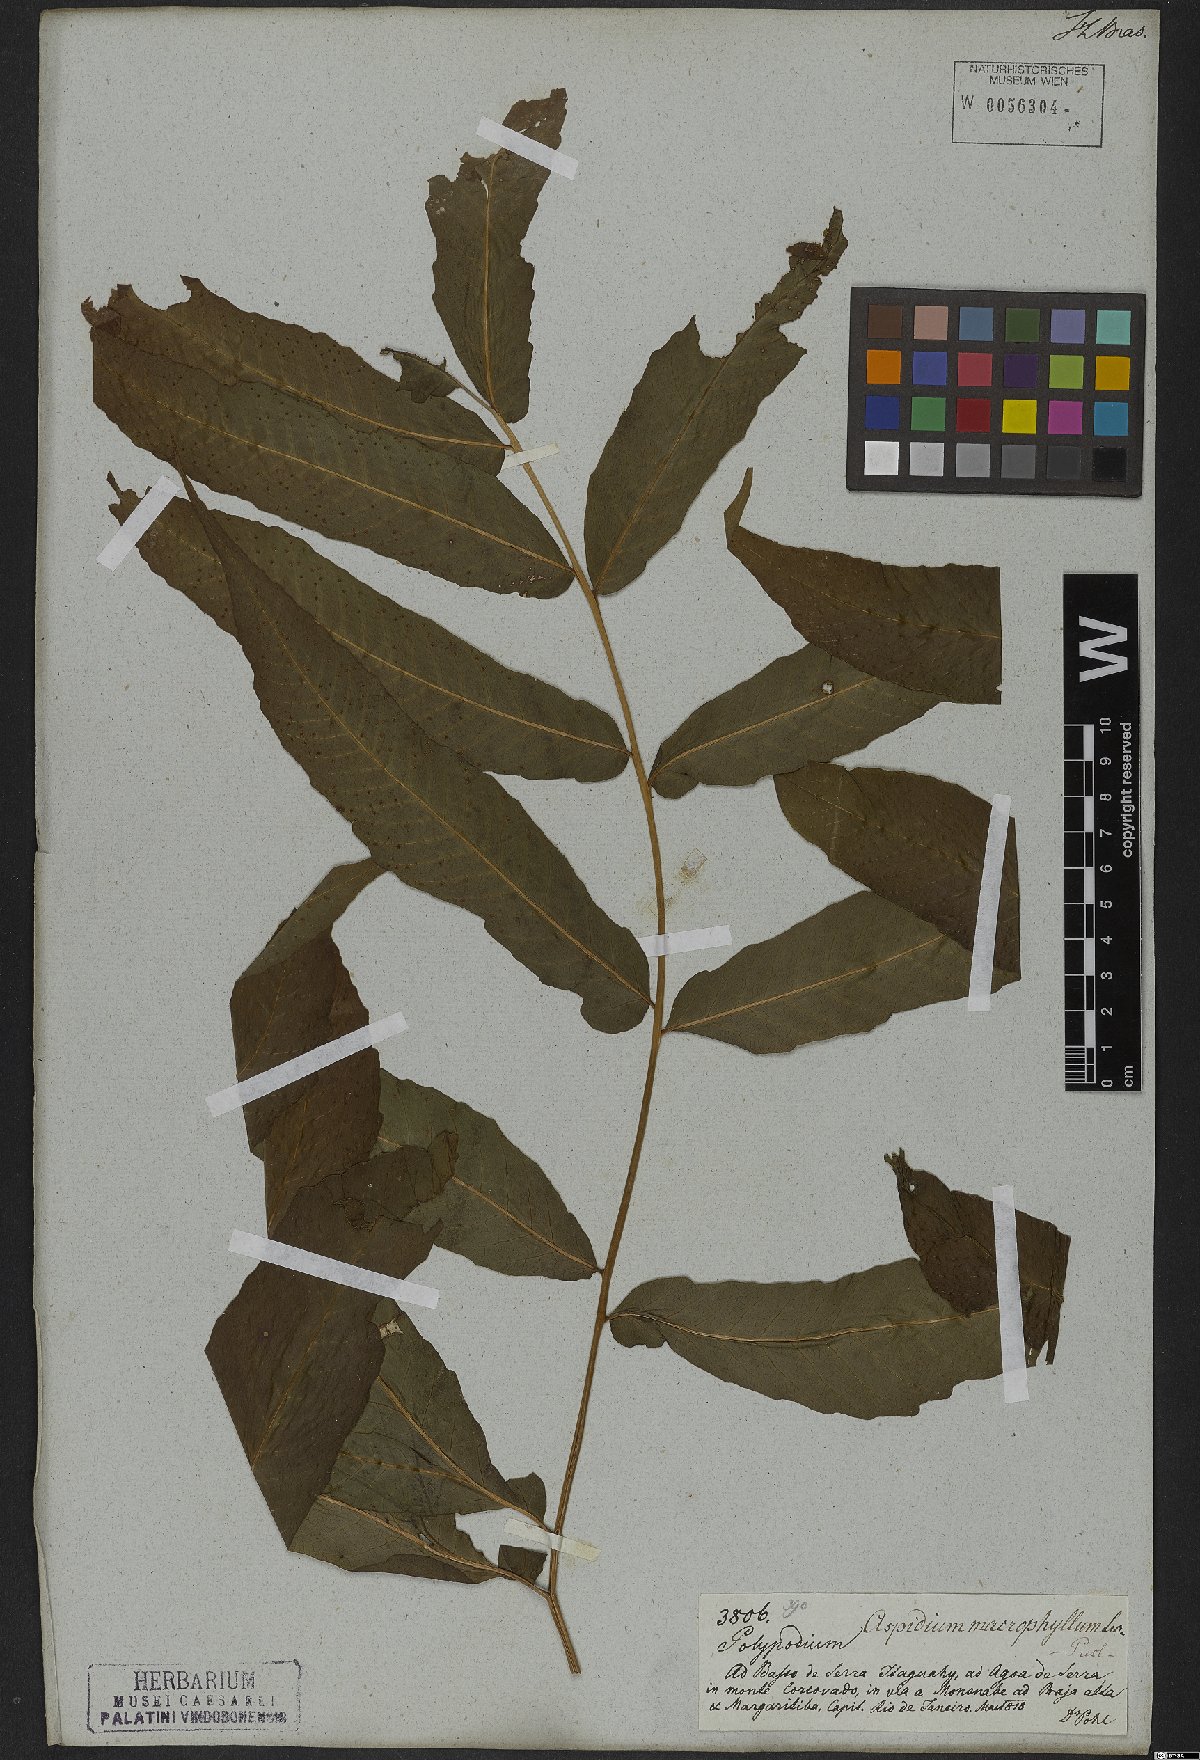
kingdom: Plantae
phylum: Tracheophyta
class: Polypodiopsida
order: Polypodiales
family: Tectariaceae
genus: Tectaria
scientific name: Tectaria incisa
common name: Incised halberd fern
